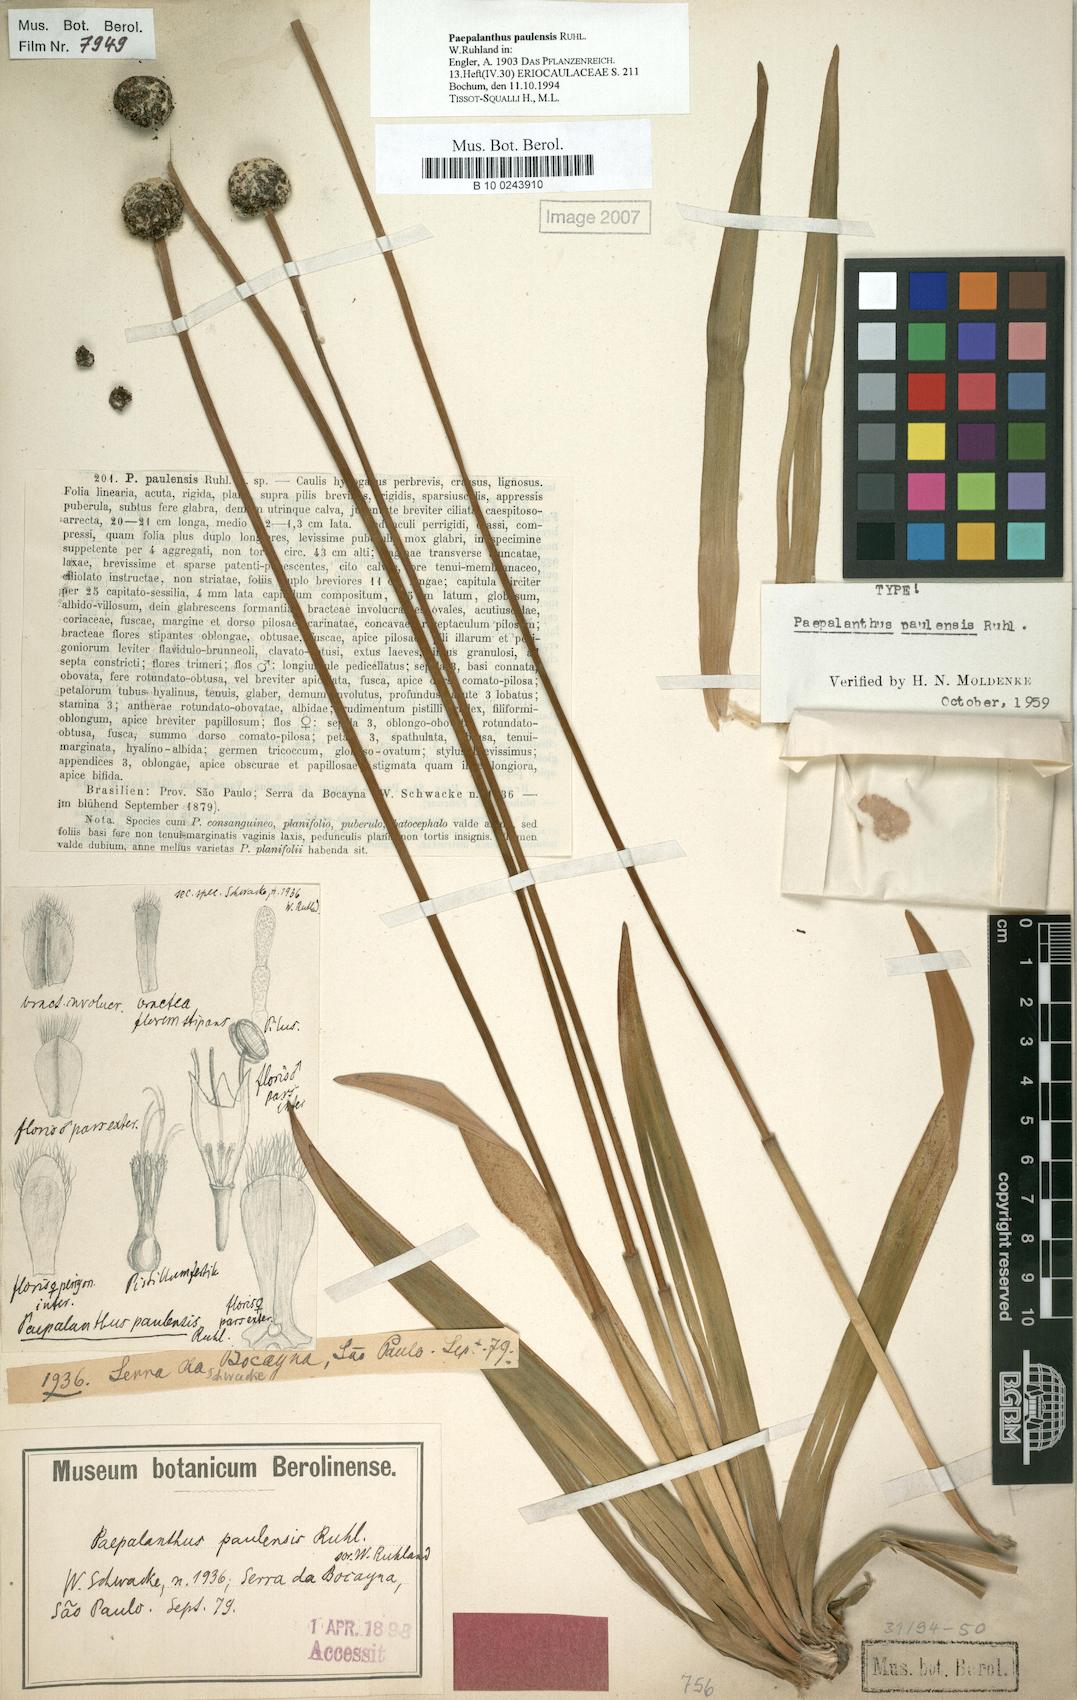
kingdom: Plantae
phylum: Tracheophyta
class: Liliopsida
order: Poales
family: Eriocaulaceae
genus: Paepalanthus
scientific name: Paepalanthus paulensis
